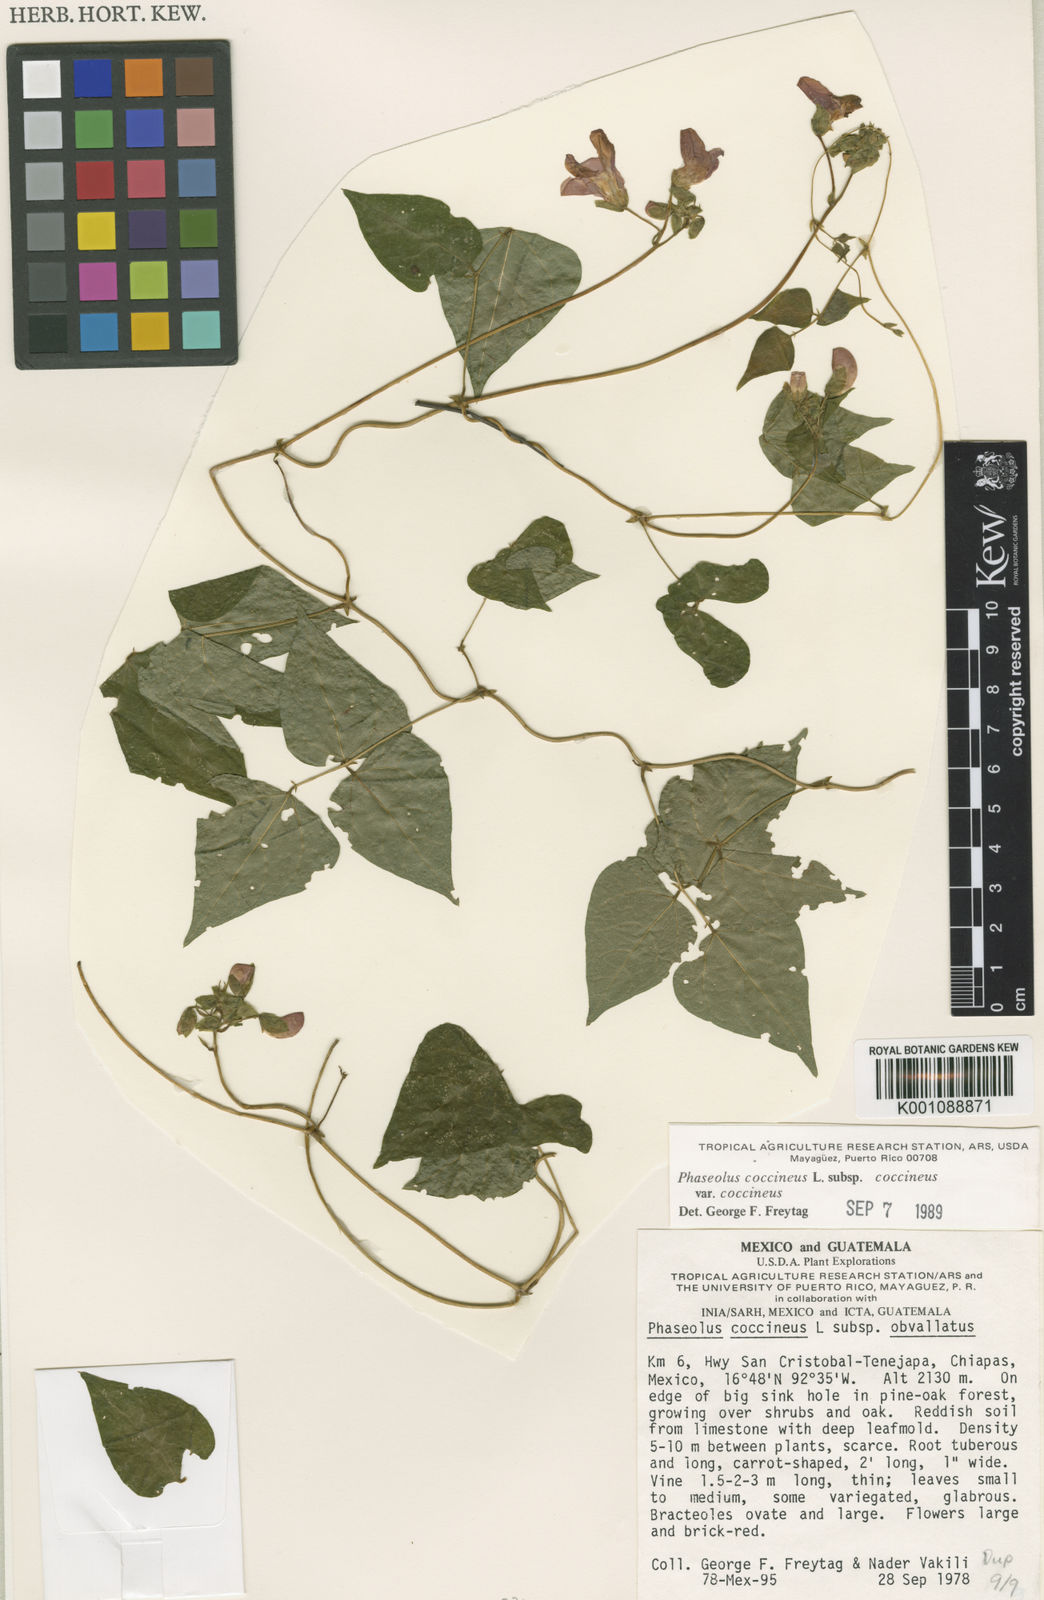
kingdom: Plantae
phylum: Tracheophyta
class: Magnoliopsida
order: Fabales
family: Fabaceae
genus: Phaseolus
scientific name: Phaseolus coccineus
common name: Runner bean
